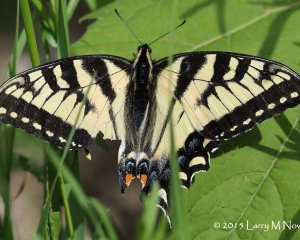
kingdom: Animalia
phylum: Arthropoda
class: Insecta
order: Lepidoptera
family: Papilionidae
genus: Pterourus
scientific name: Pterourus canadensis
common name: Canadian Tiger Swallowtail
